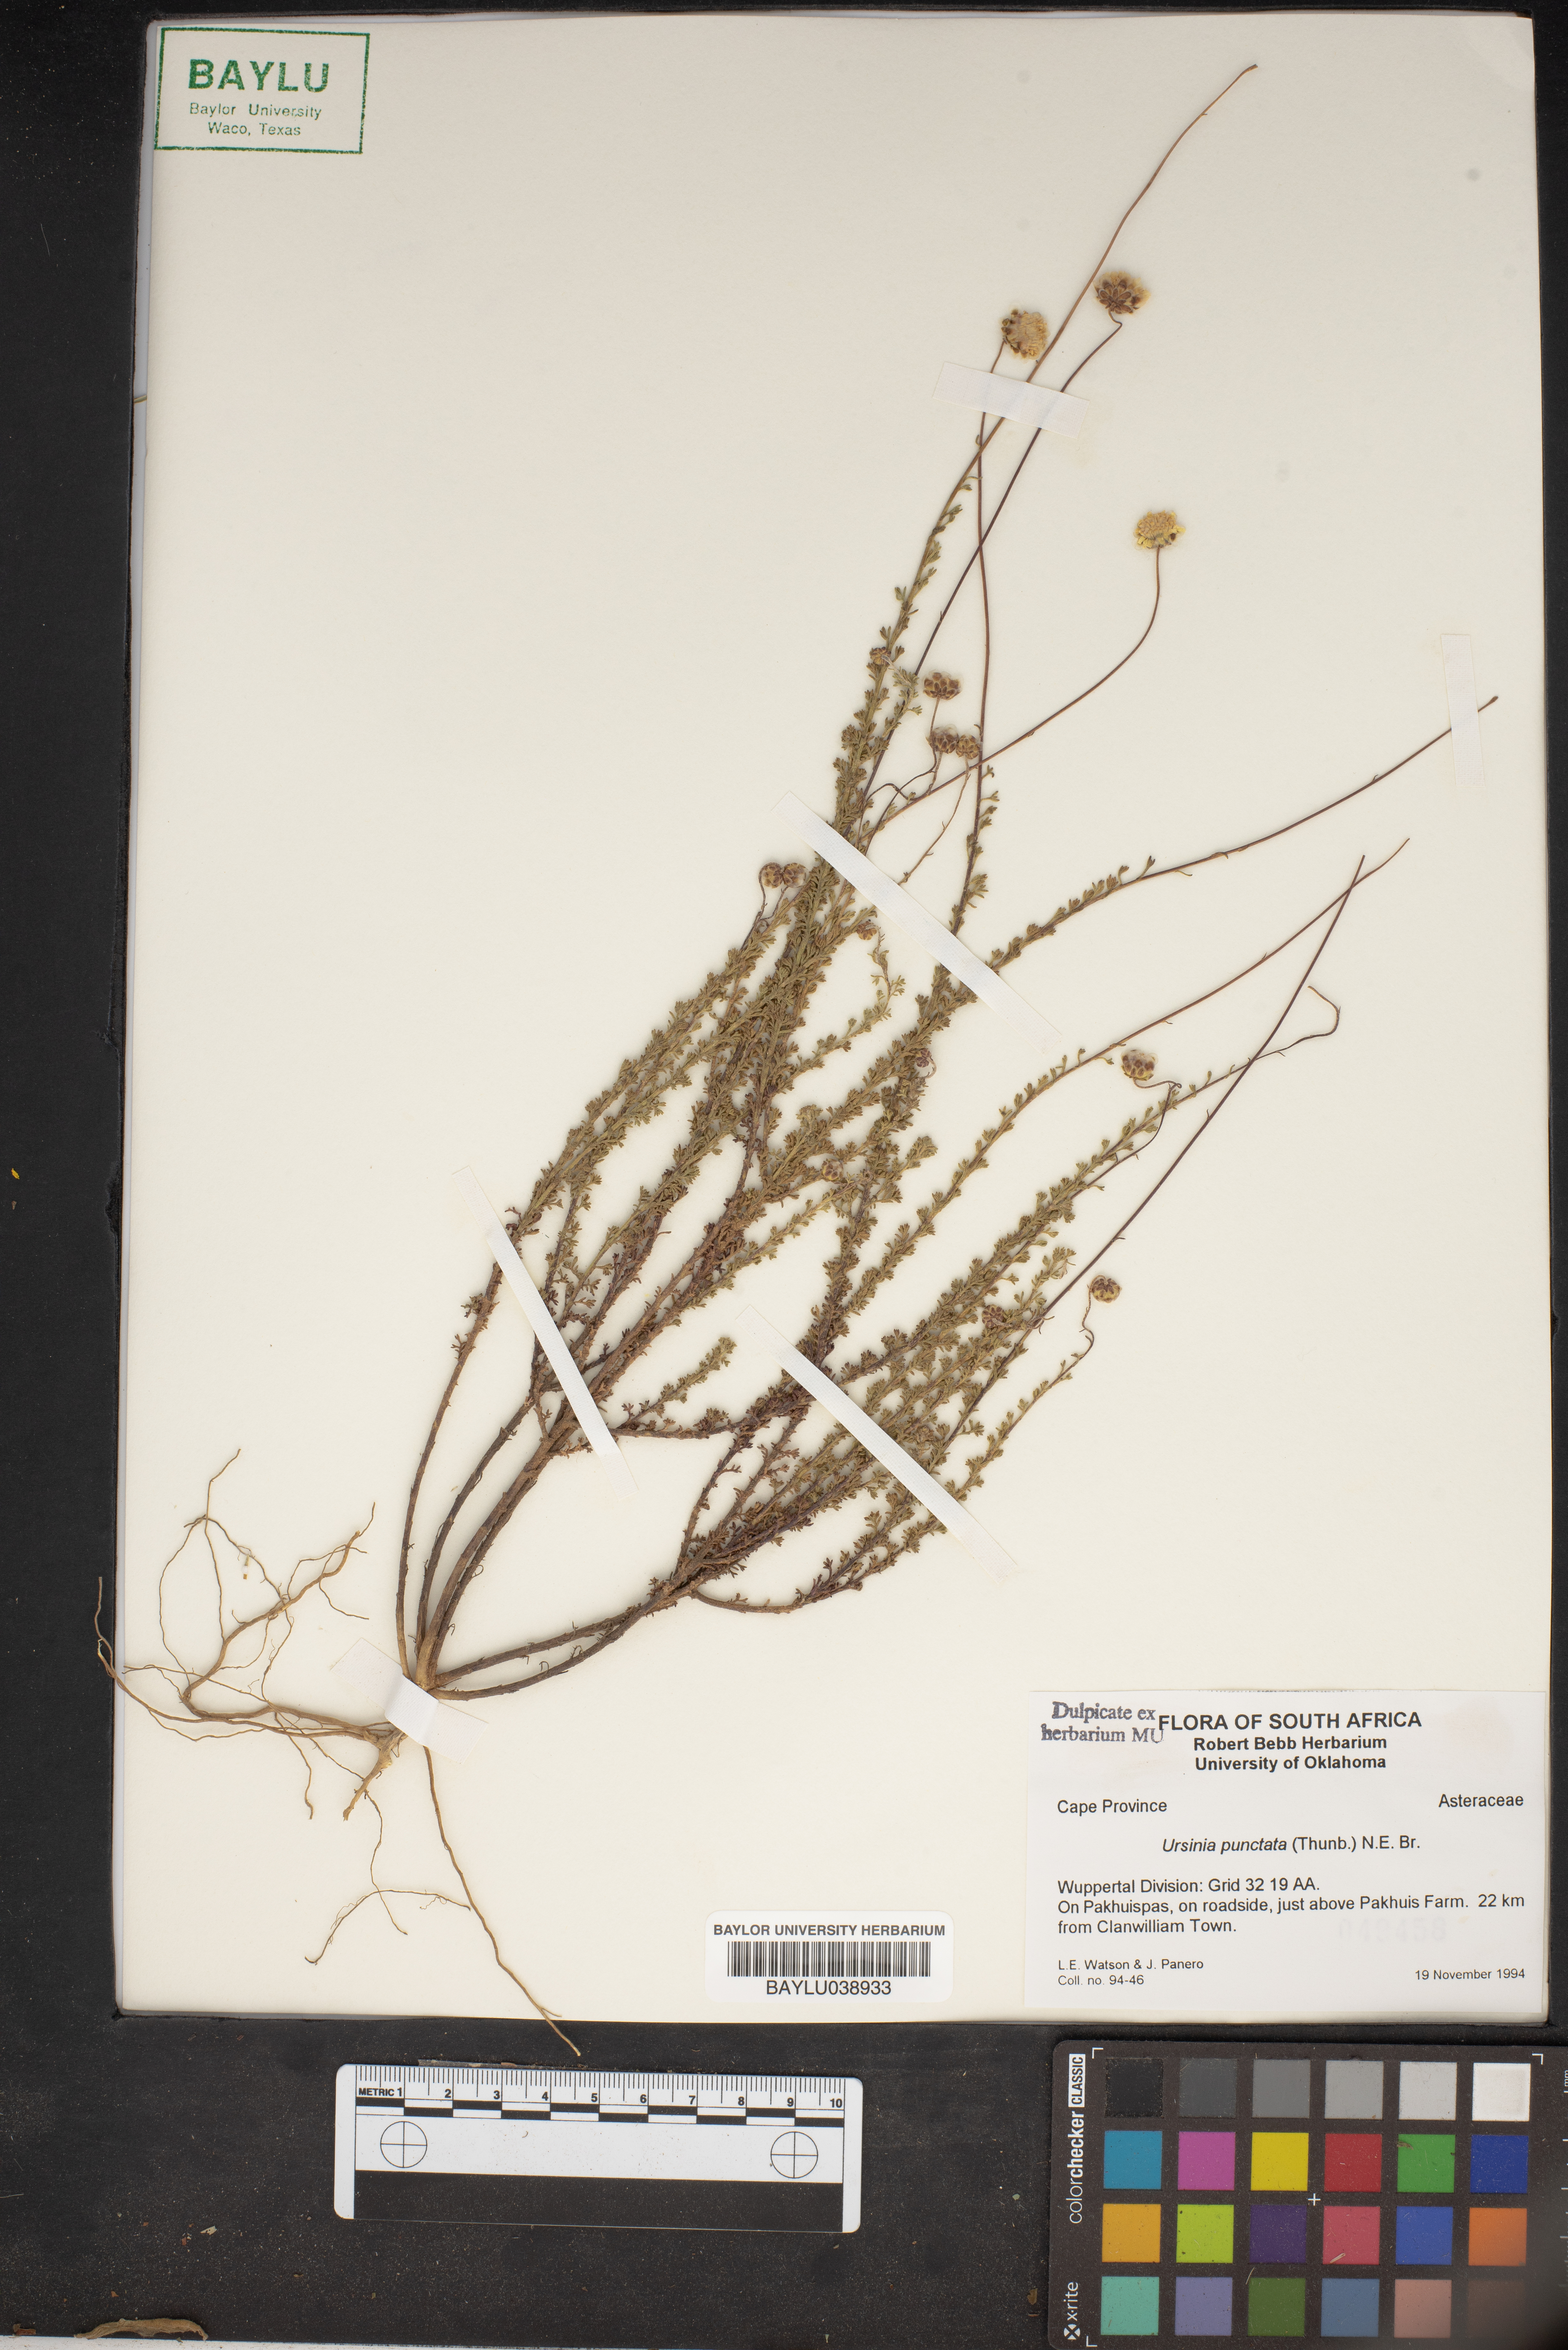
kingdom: Plantae
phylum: Tracheophyta
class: Magnoliopsida
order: Asterales
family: Asteraceae
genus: Ursinia
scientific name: Ursinia punctata
